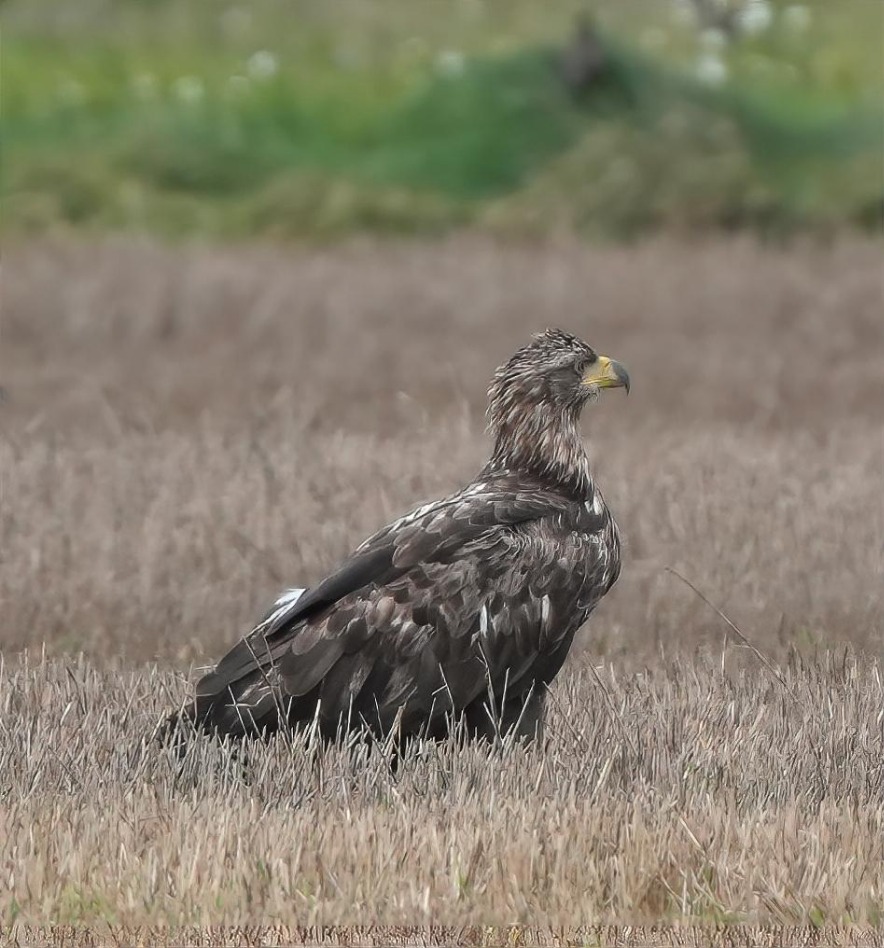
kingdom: Animalia
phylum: Chordata
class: Aves
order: Accipitriformes
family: Accipitridae
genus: Haliaeetus
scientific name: Haliaeetus albicilla
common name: Havørn
